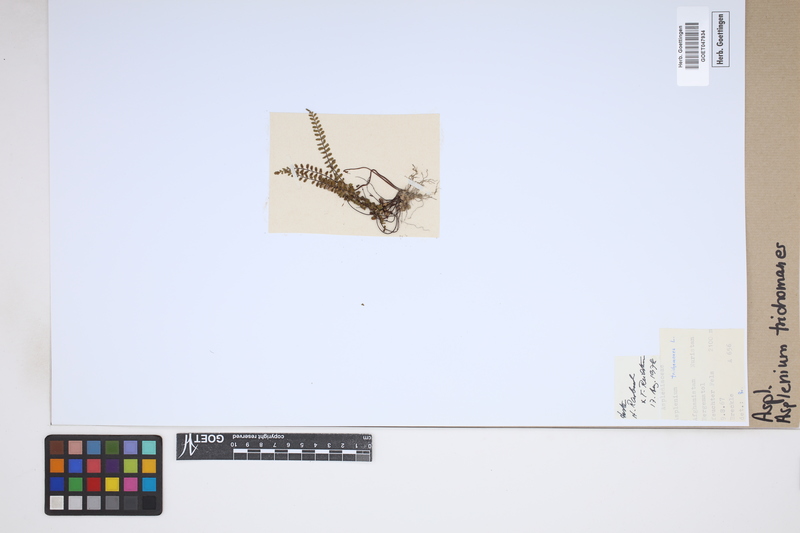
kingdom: Plantae
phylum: Tracheophyta
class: Polypodiopsida
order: Polypodiales
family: Aspleniaceae
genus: Asplenium
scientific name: Asplenium trichomanes
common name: Maidenhair spleenwort
